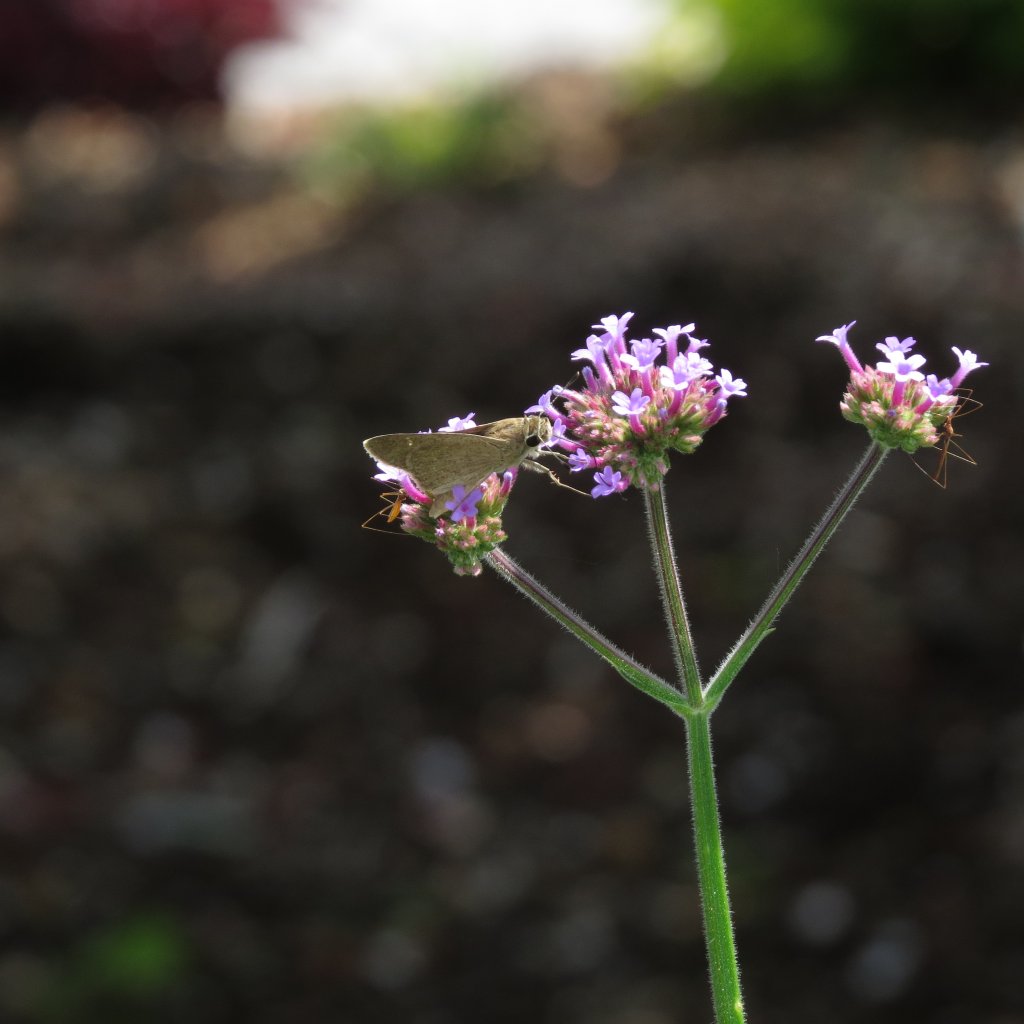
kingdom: Animalia
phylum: Arthropoda
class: Insecta
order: Lepidoptera
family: Hesperiidae
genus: Lerodea
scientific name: Lerodea eufala
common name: Eufala Skipper
